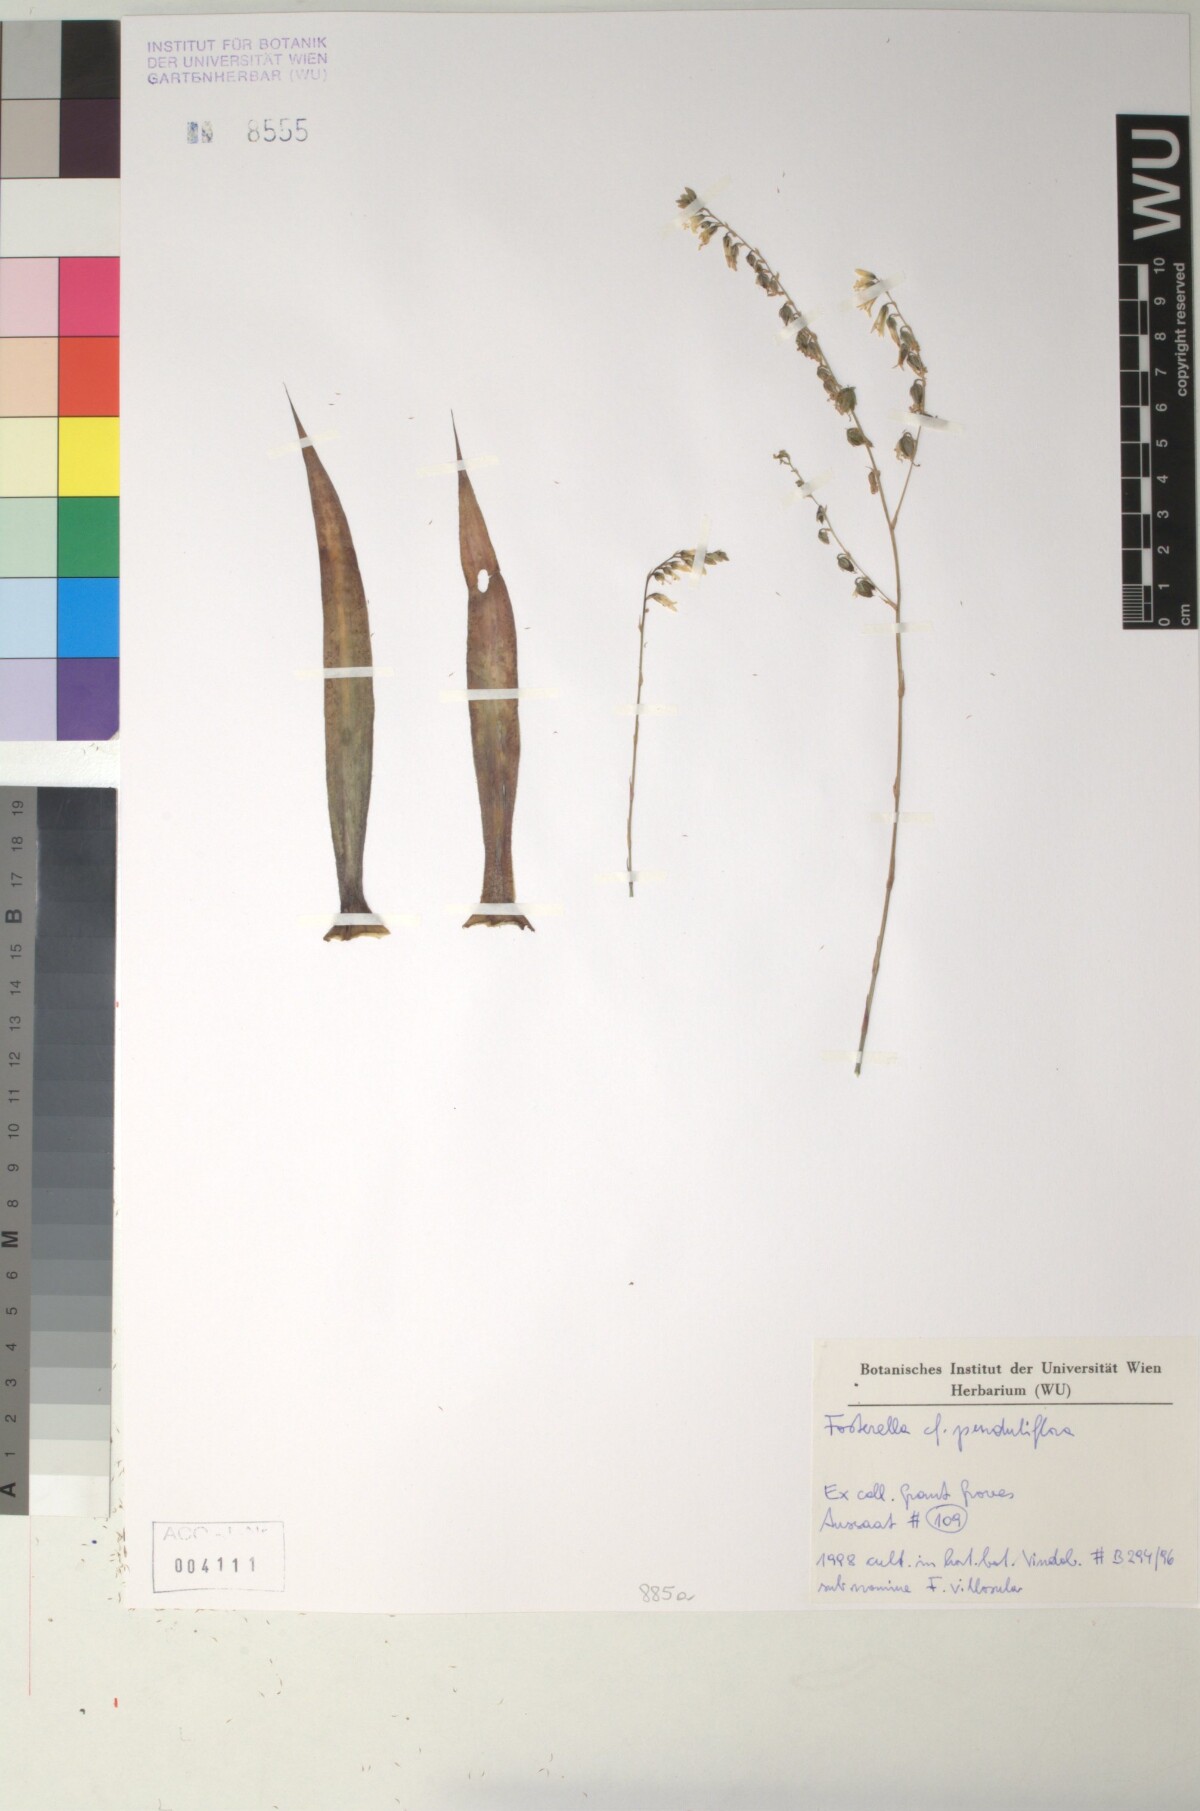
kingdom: Plantae
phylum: Tracheophyta
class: Liliopsida
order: Poales
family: Bromeliaceae
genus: Fosterella
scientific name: Fosterella penduliflora
